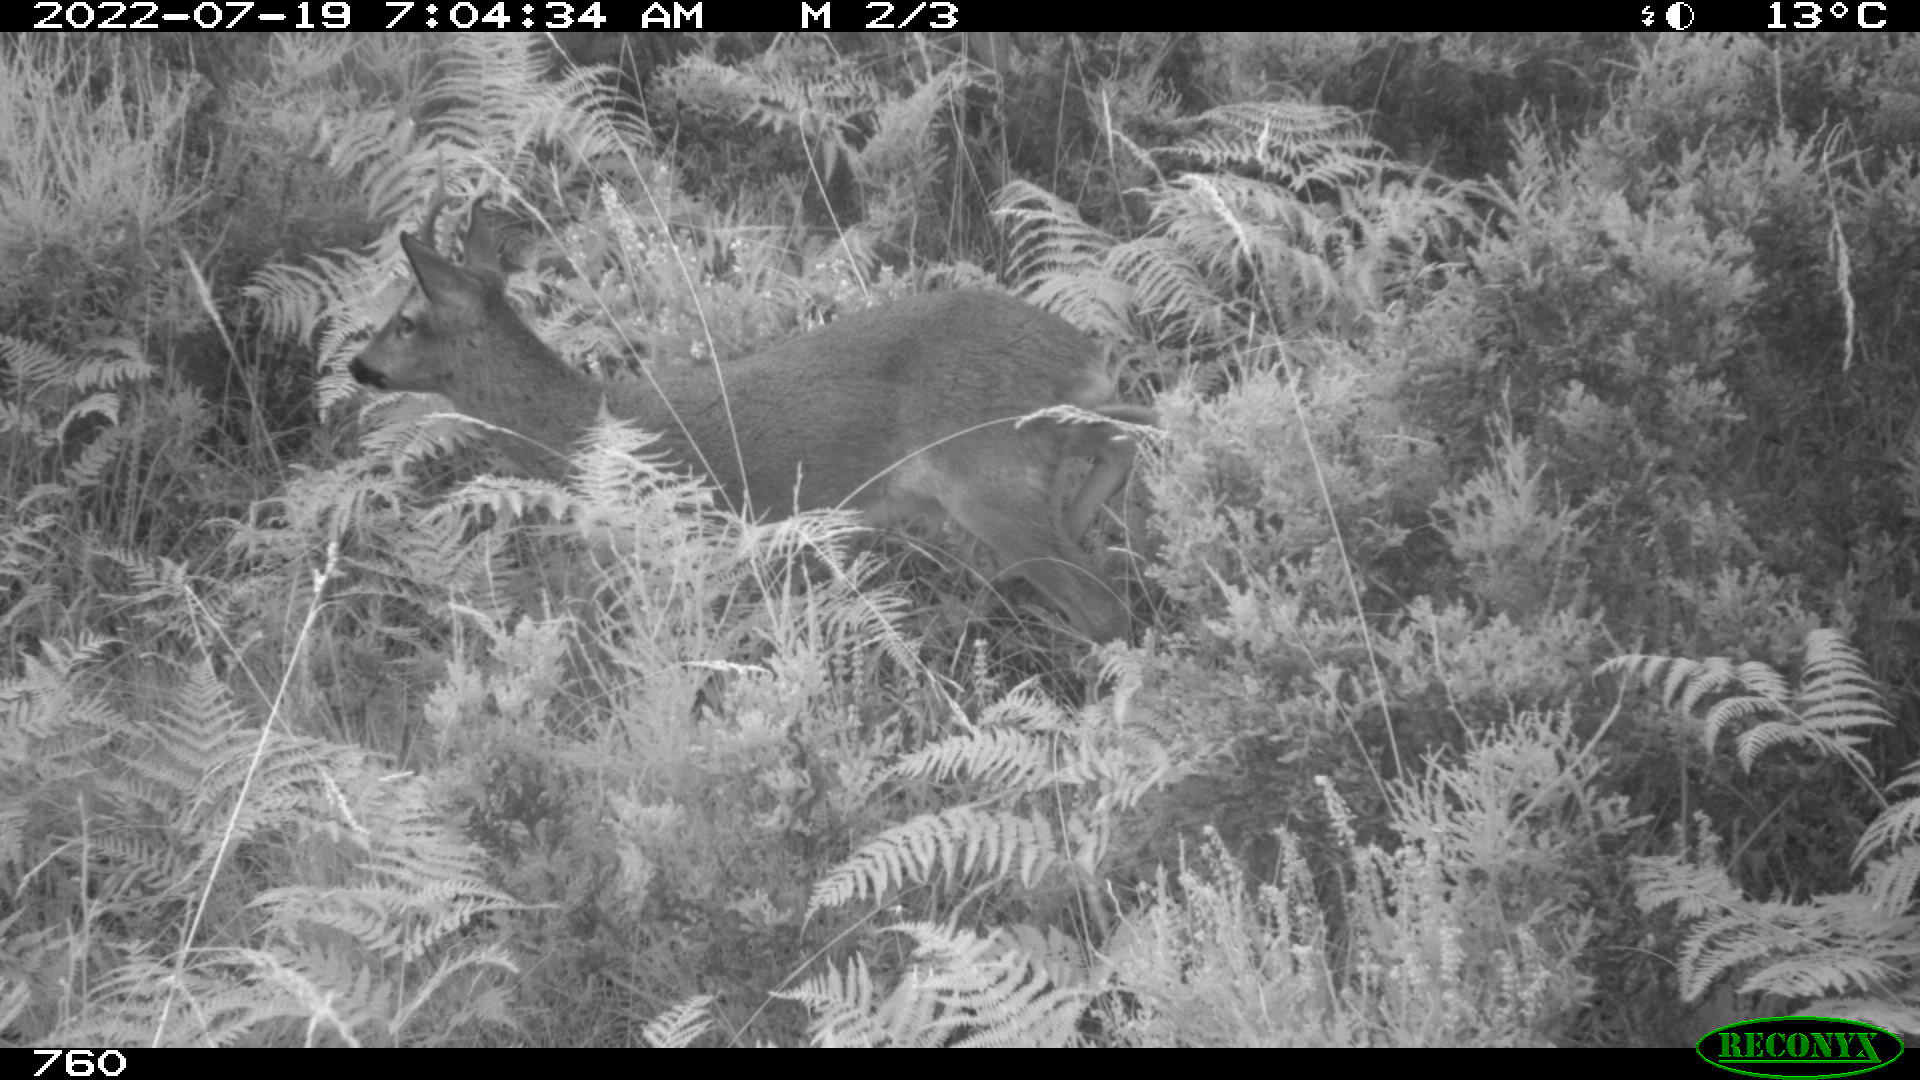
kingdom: Animalia
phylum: Chordata
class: Mammalia
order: Artiodactyla
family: Cervidae
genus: Capreolus
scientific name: Capreolus capreolus
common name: Western roe deer
